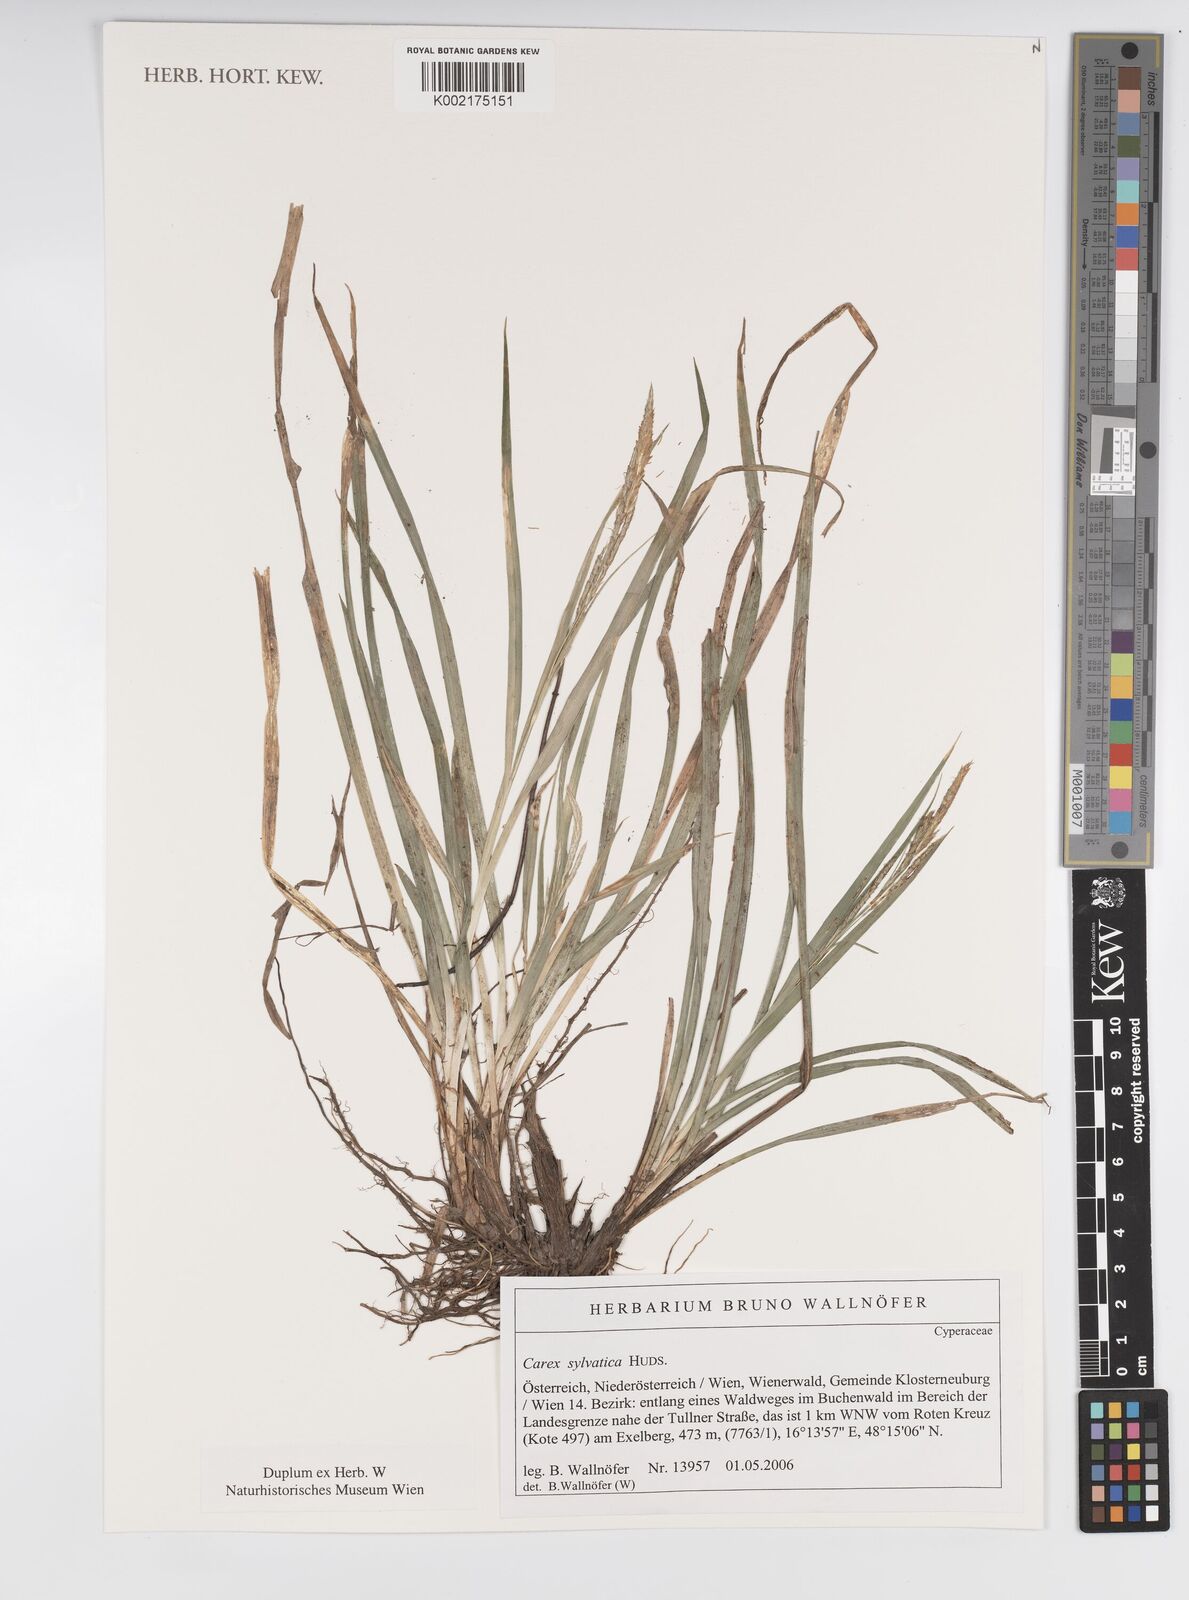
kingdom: Plantae
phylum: Tracheophyta
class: Liliopsida
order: Poales
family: Cyperaceae
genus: Carex
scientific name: Carex sylvatica
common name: Wood-sedge
